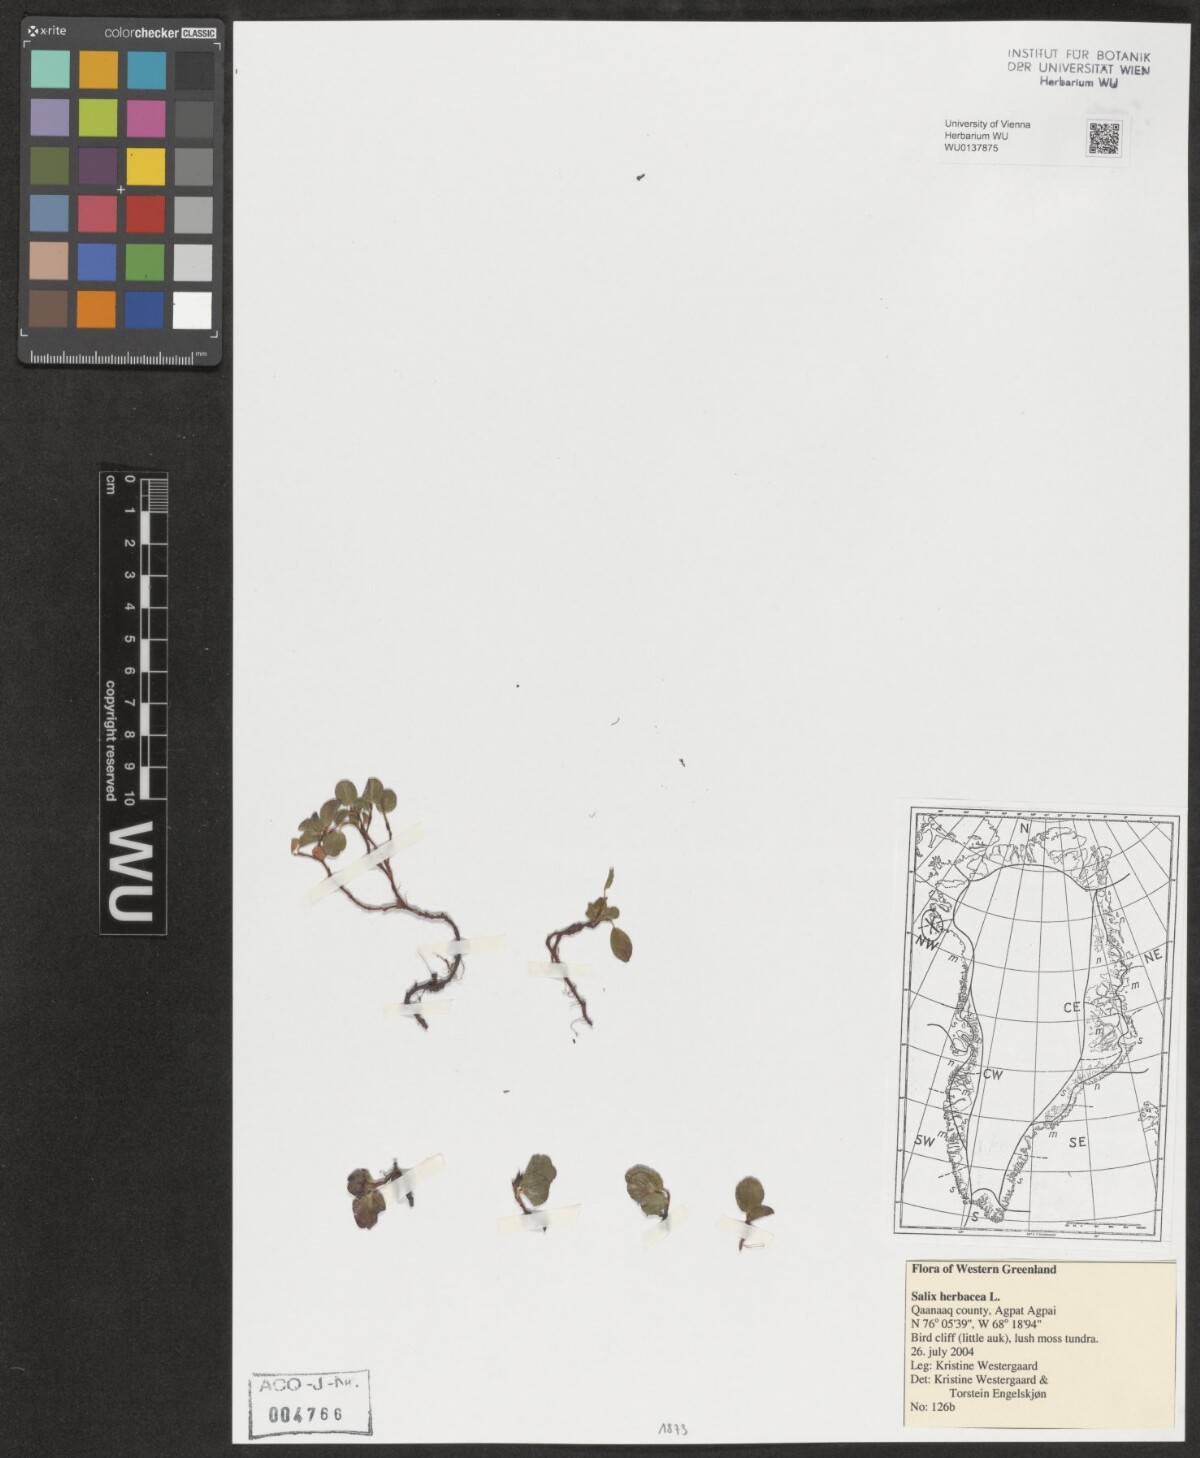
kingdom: Plantae
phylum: Tracheophyta
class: Magnoliopsida
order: Malpighiales
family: Salicaceae
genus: Salix
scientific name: Salix herbacea
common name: Dwarf willow
